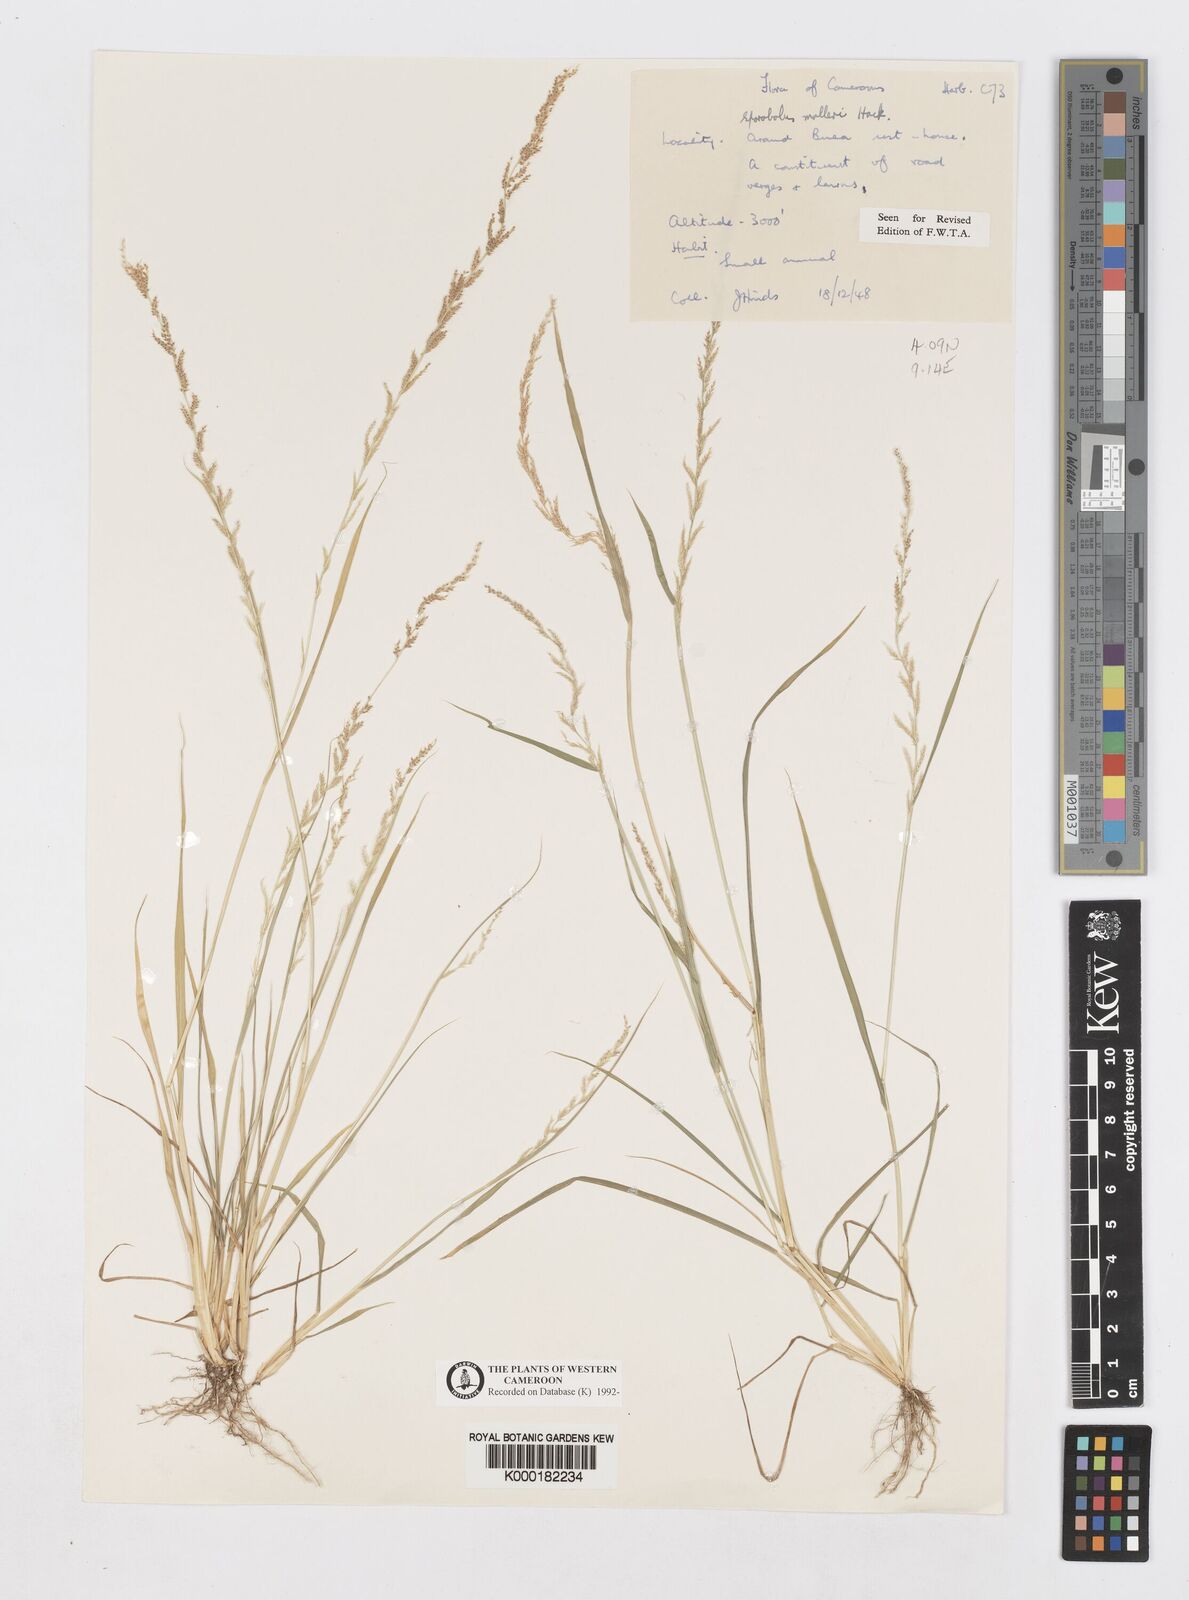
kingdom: Plantae
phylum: Tracheophyta
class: Liliopsida
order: Poales
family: Poaceae
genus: Sporobolus
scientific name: Sporobolus molleri
